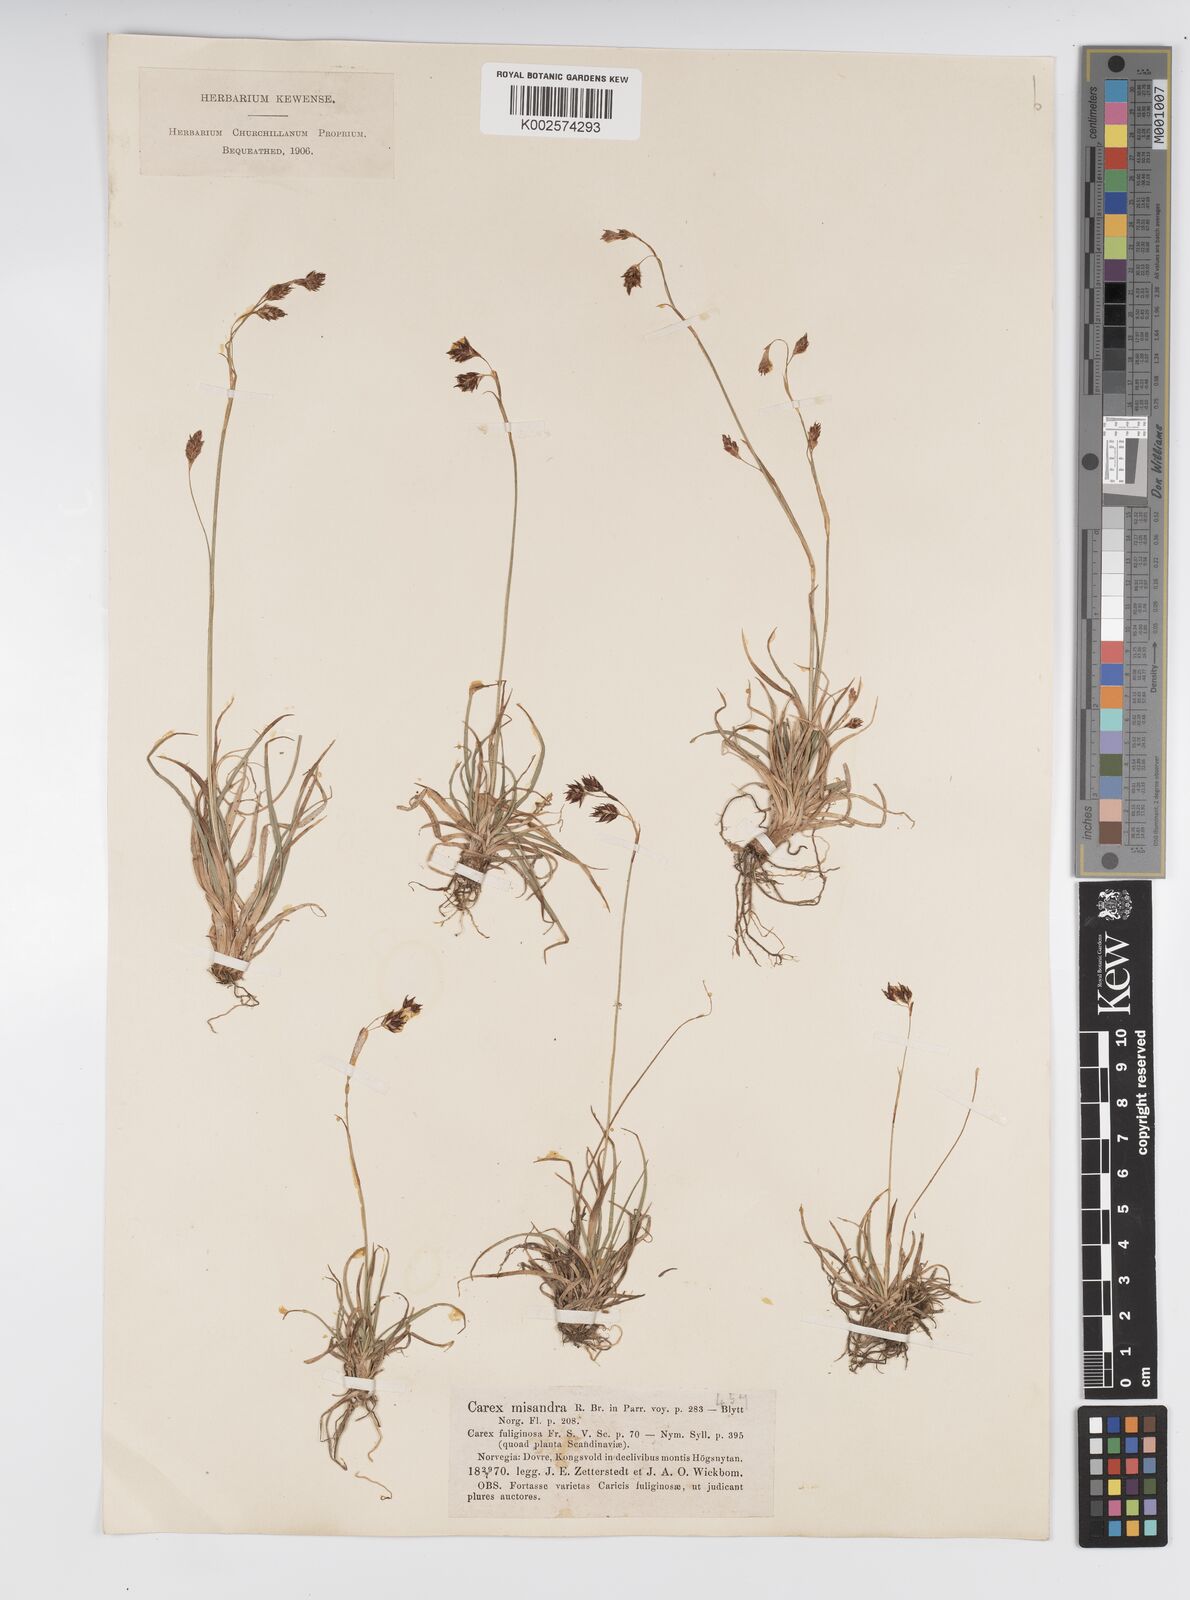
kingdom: Plantae
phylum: Tracheophyta
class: Liliopsida
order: Poales
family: Cyperaceae
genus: Carex
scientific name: Carex fuliginosa
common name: Few-flowered sedge
